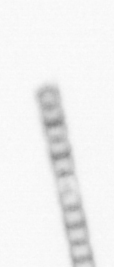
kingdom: Chromista
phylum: Ochrophyta
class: Bacillariophyceae
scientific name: Bacillariophyceae
